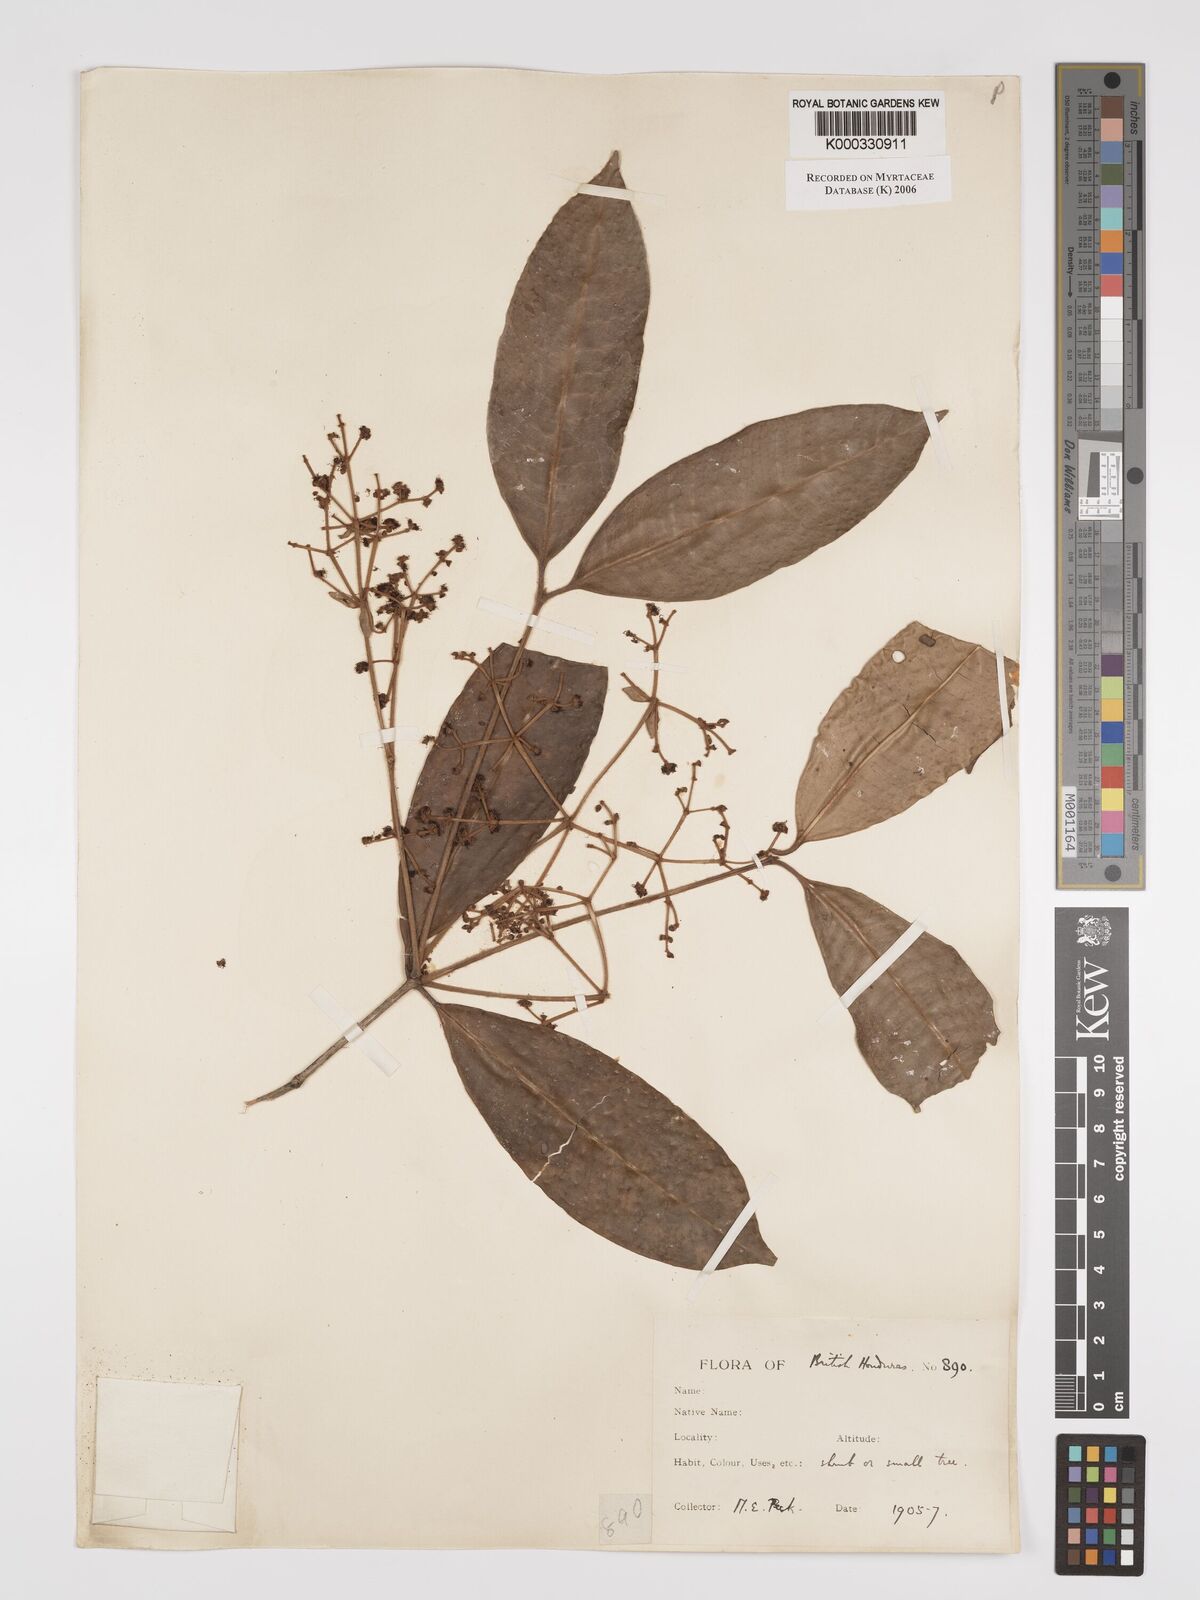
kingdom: Plantae
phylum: Tracheophyta
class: Magnoliopsida
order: Myrtales
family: Myrtaceae
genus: Myrcia
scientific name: Myrcia millspaughii
